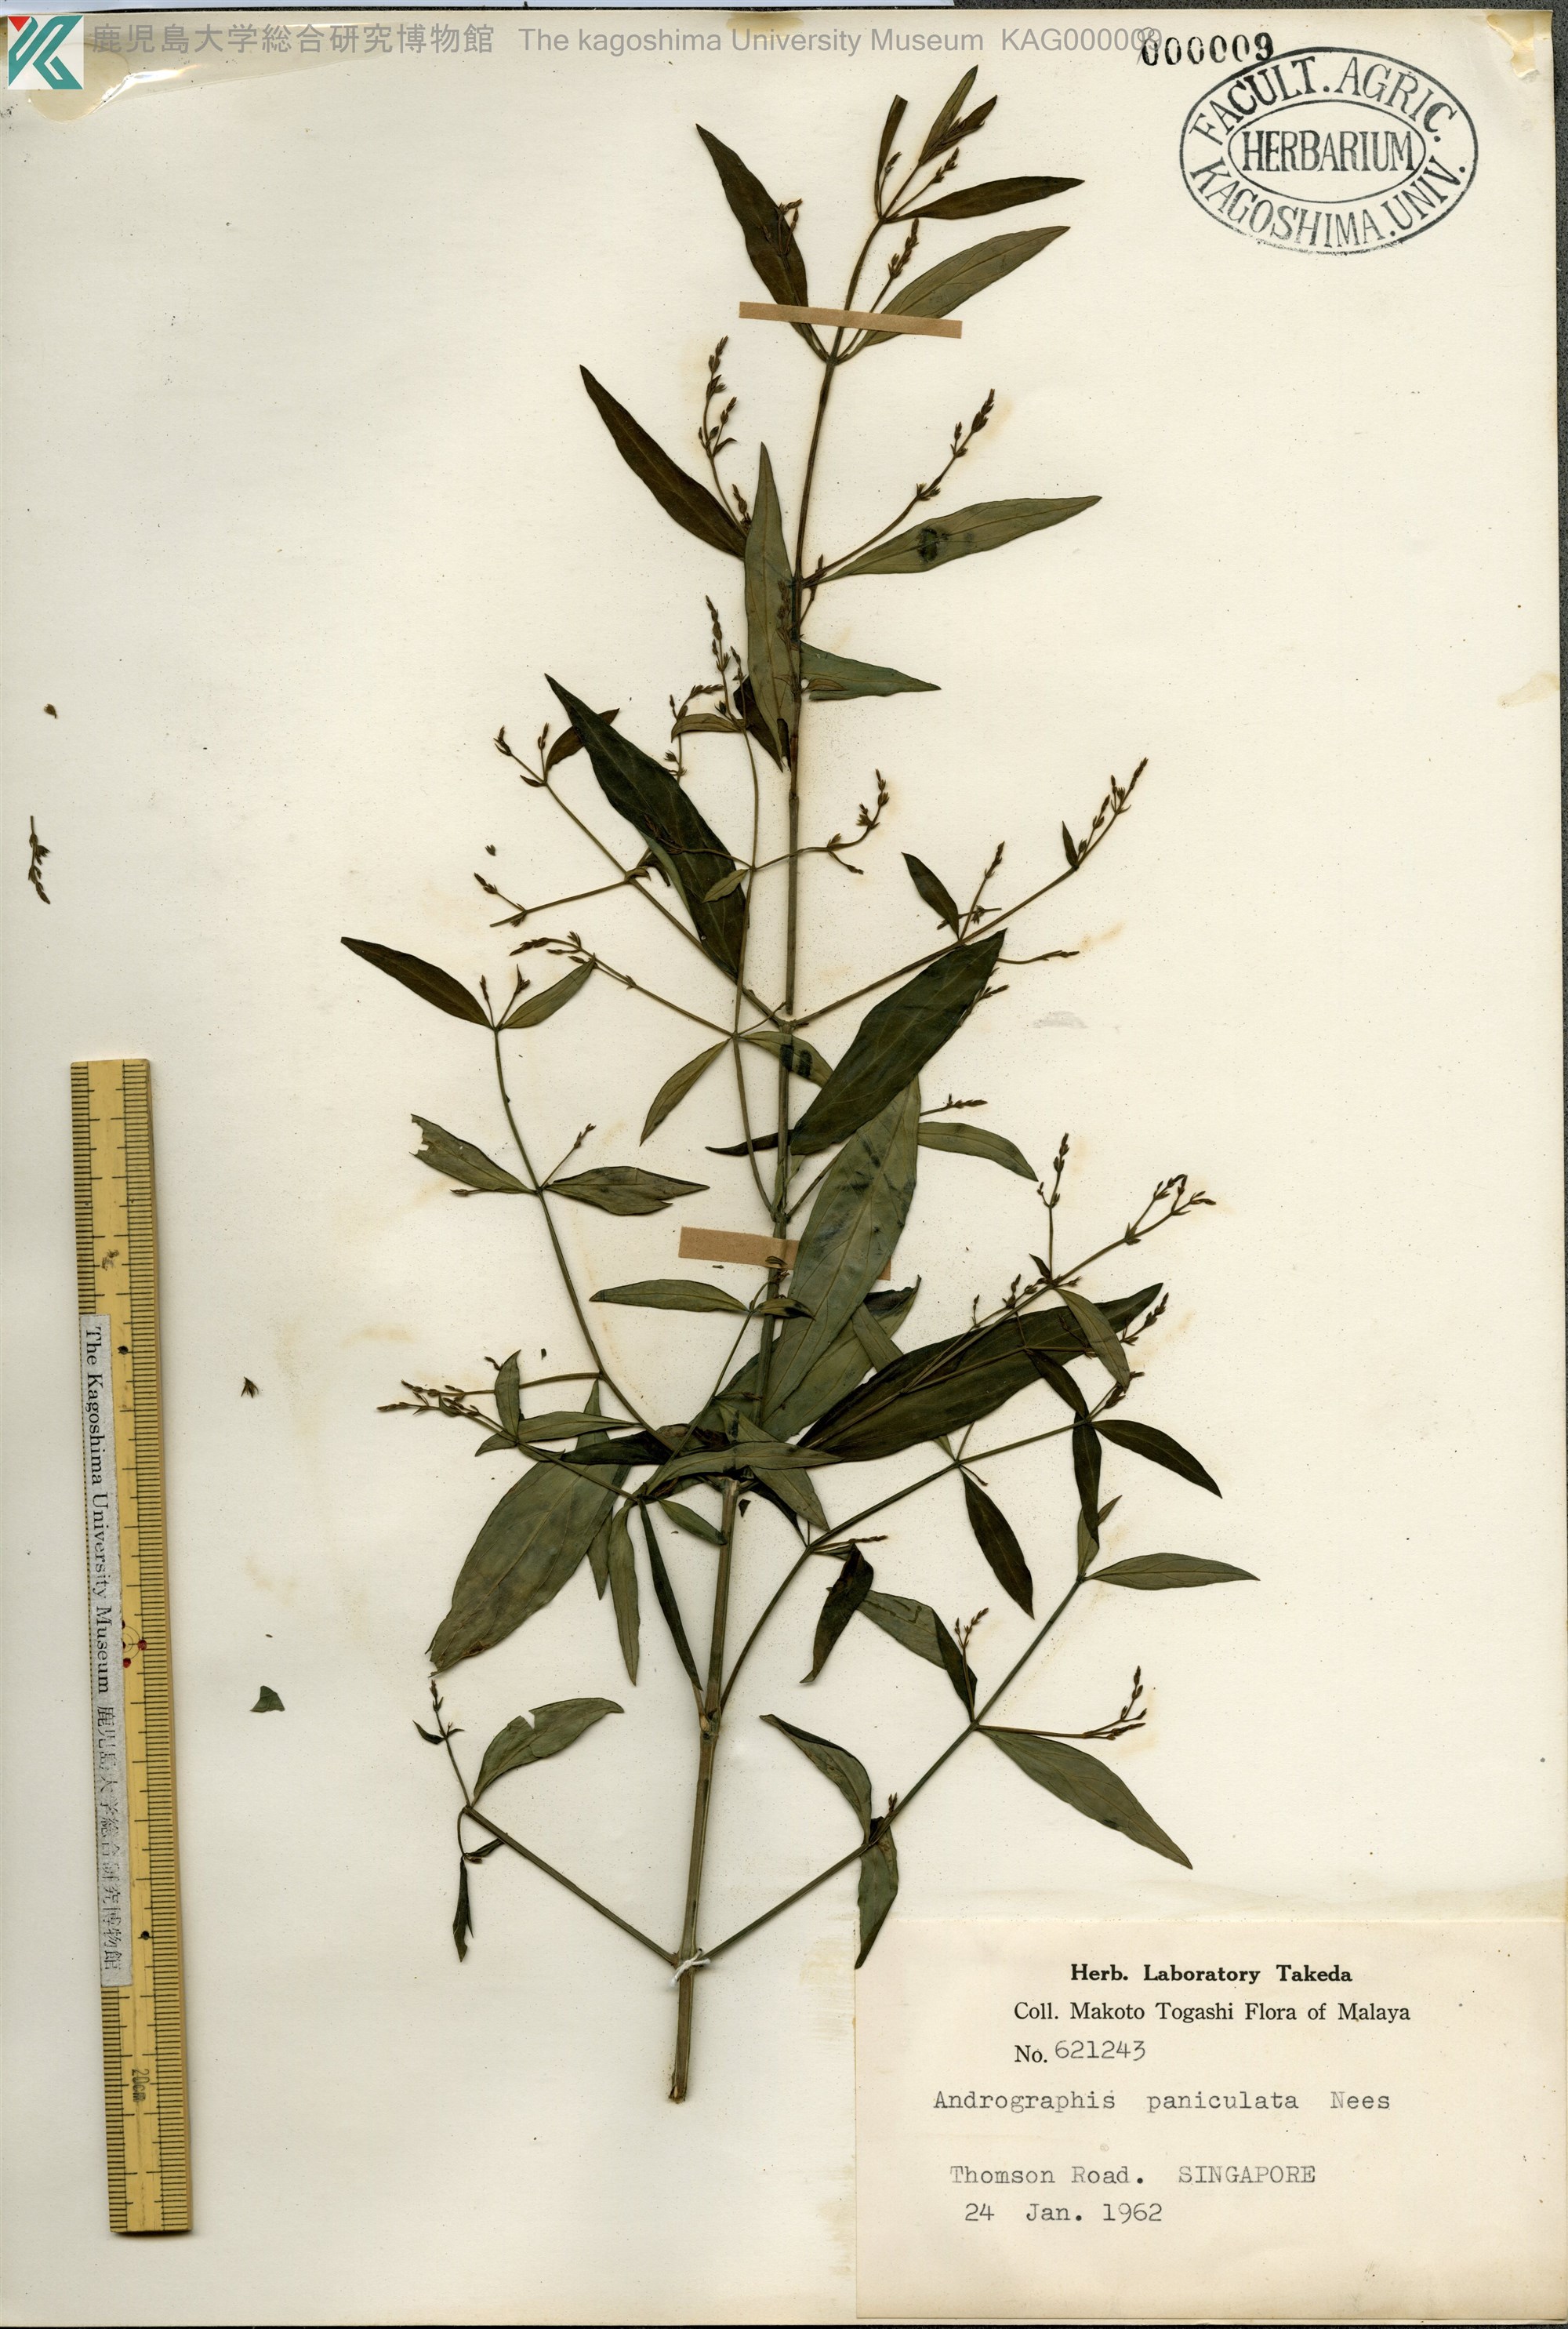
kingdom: Plantae
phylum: Tracheophyta
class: Magnoliopsida
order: Lamiales
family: Acanthaceae
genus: Andrographis
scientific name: Andrographis paniculata
